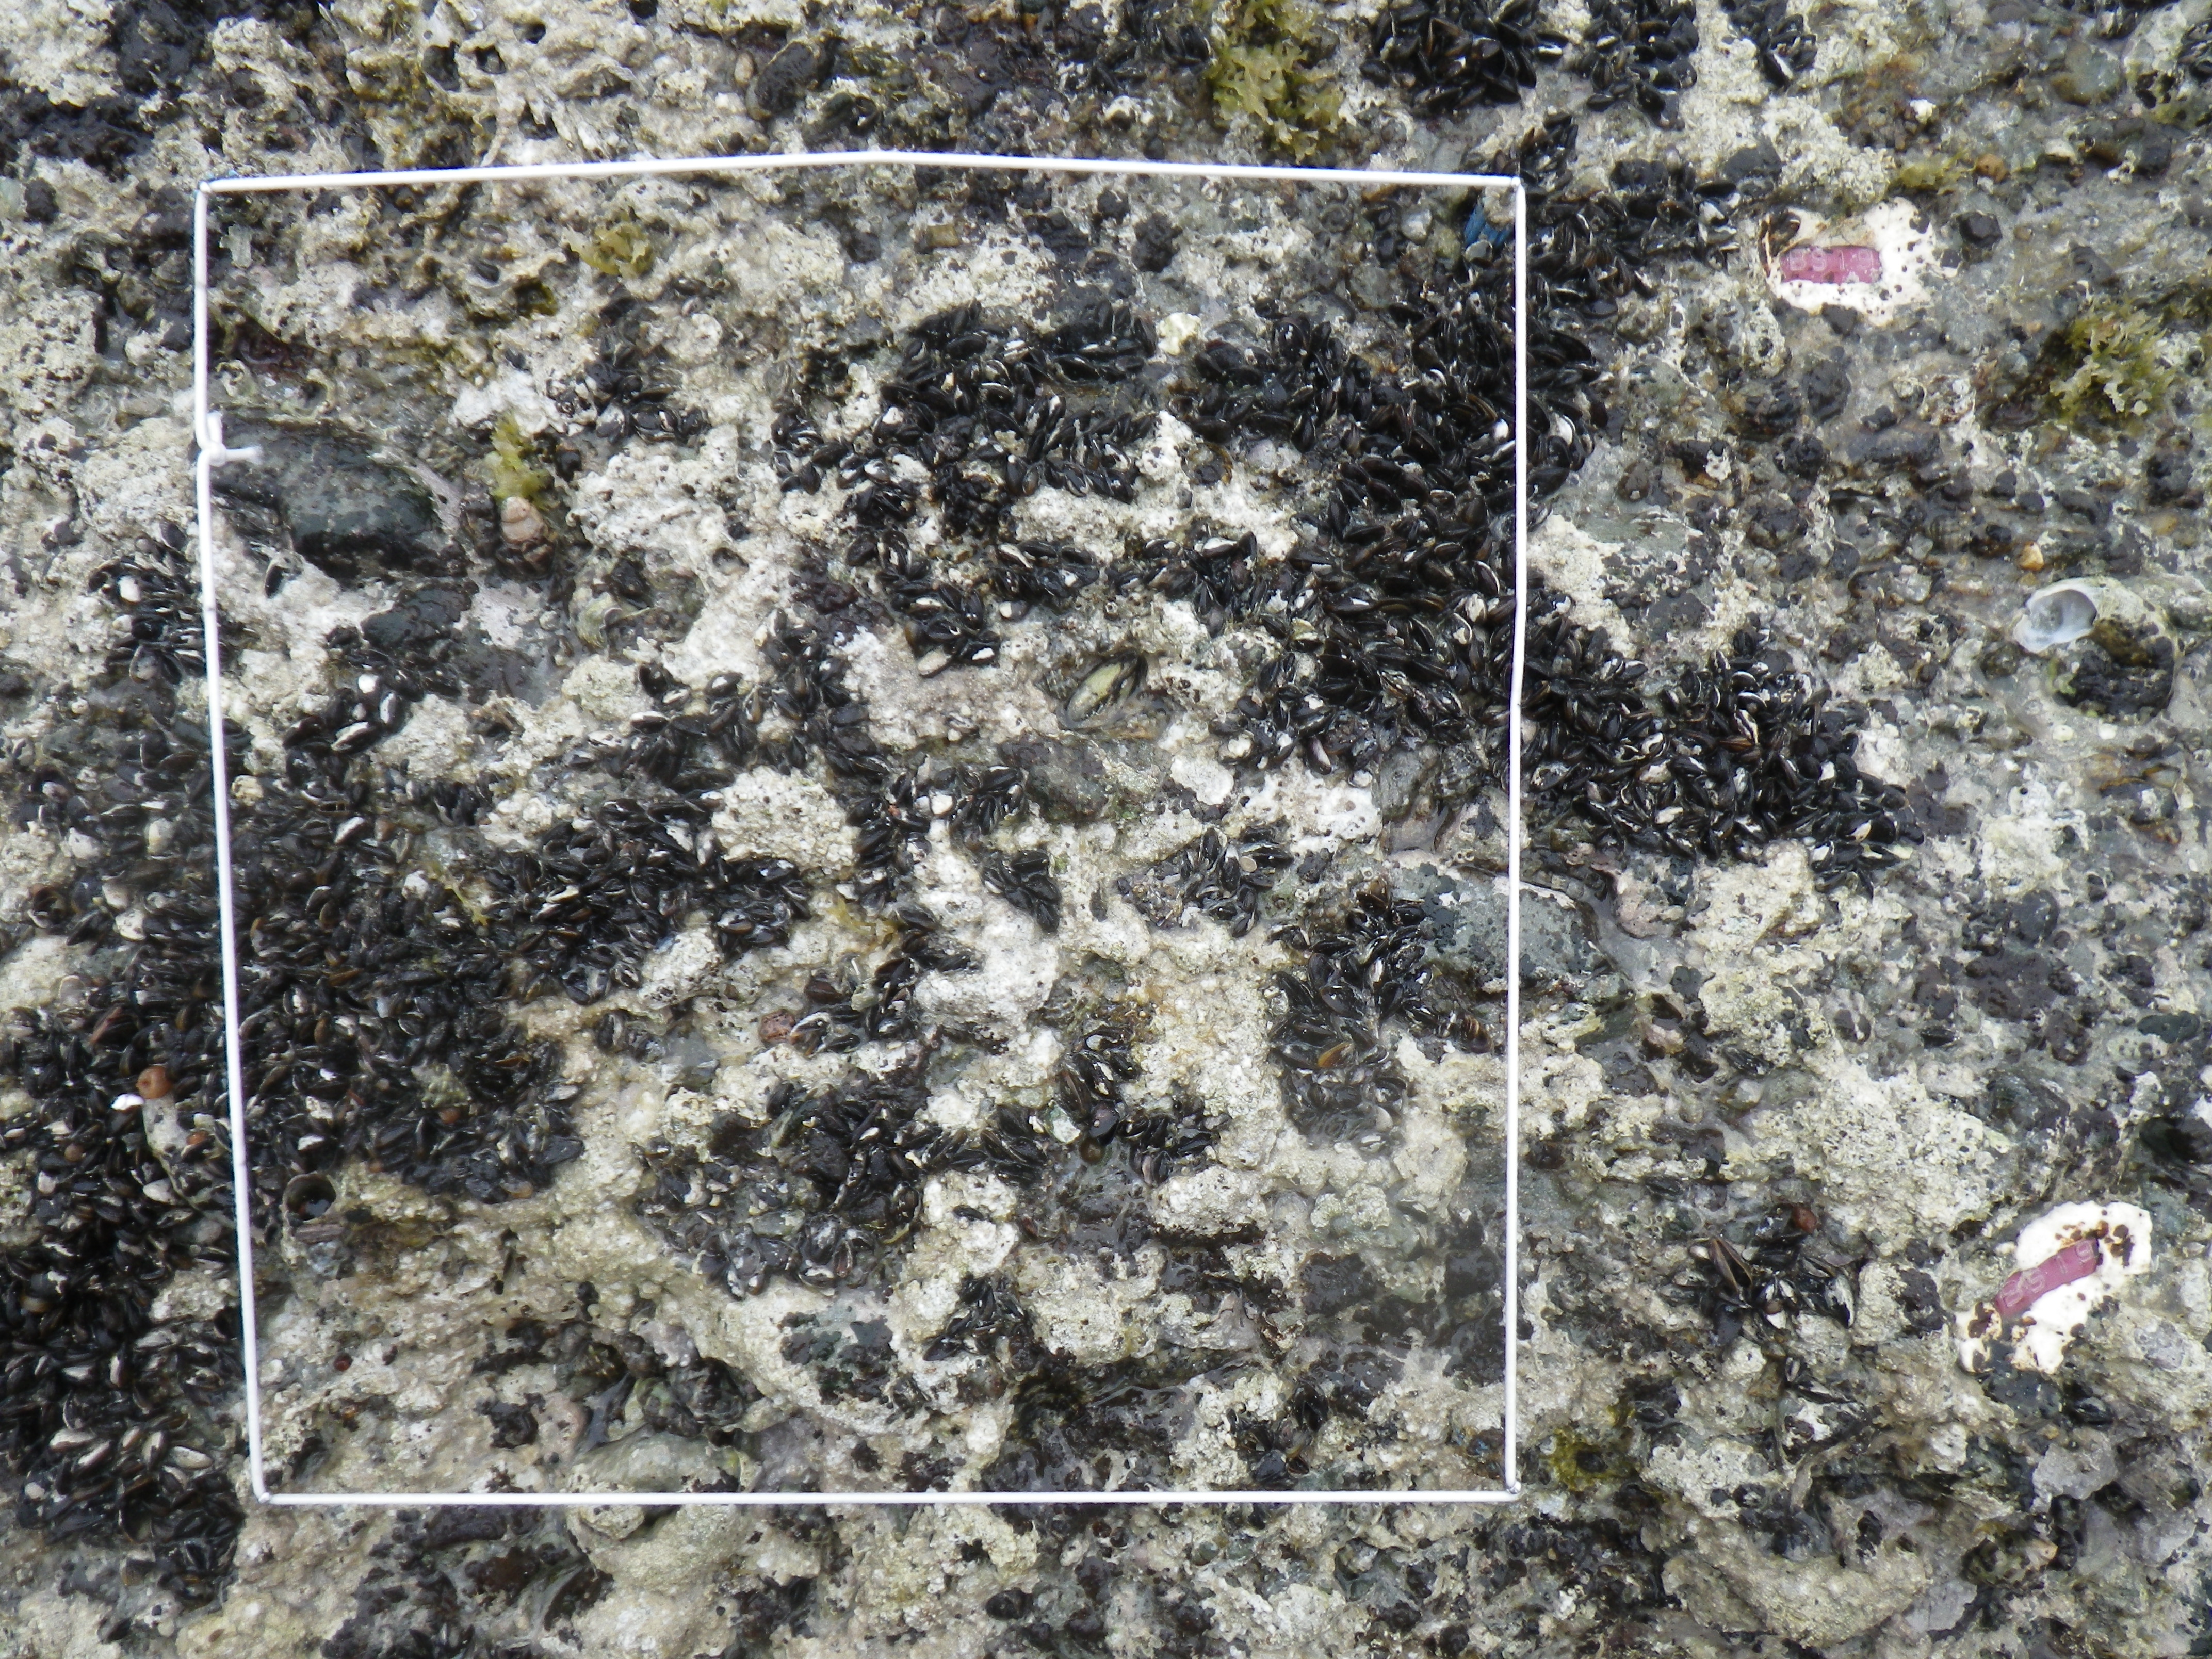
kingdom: Animalia
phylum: Mollusca
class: Bivalvia
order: Mytilida
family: Mytilidae
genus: Brachidontes
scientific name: Brachidontes mutabilis
